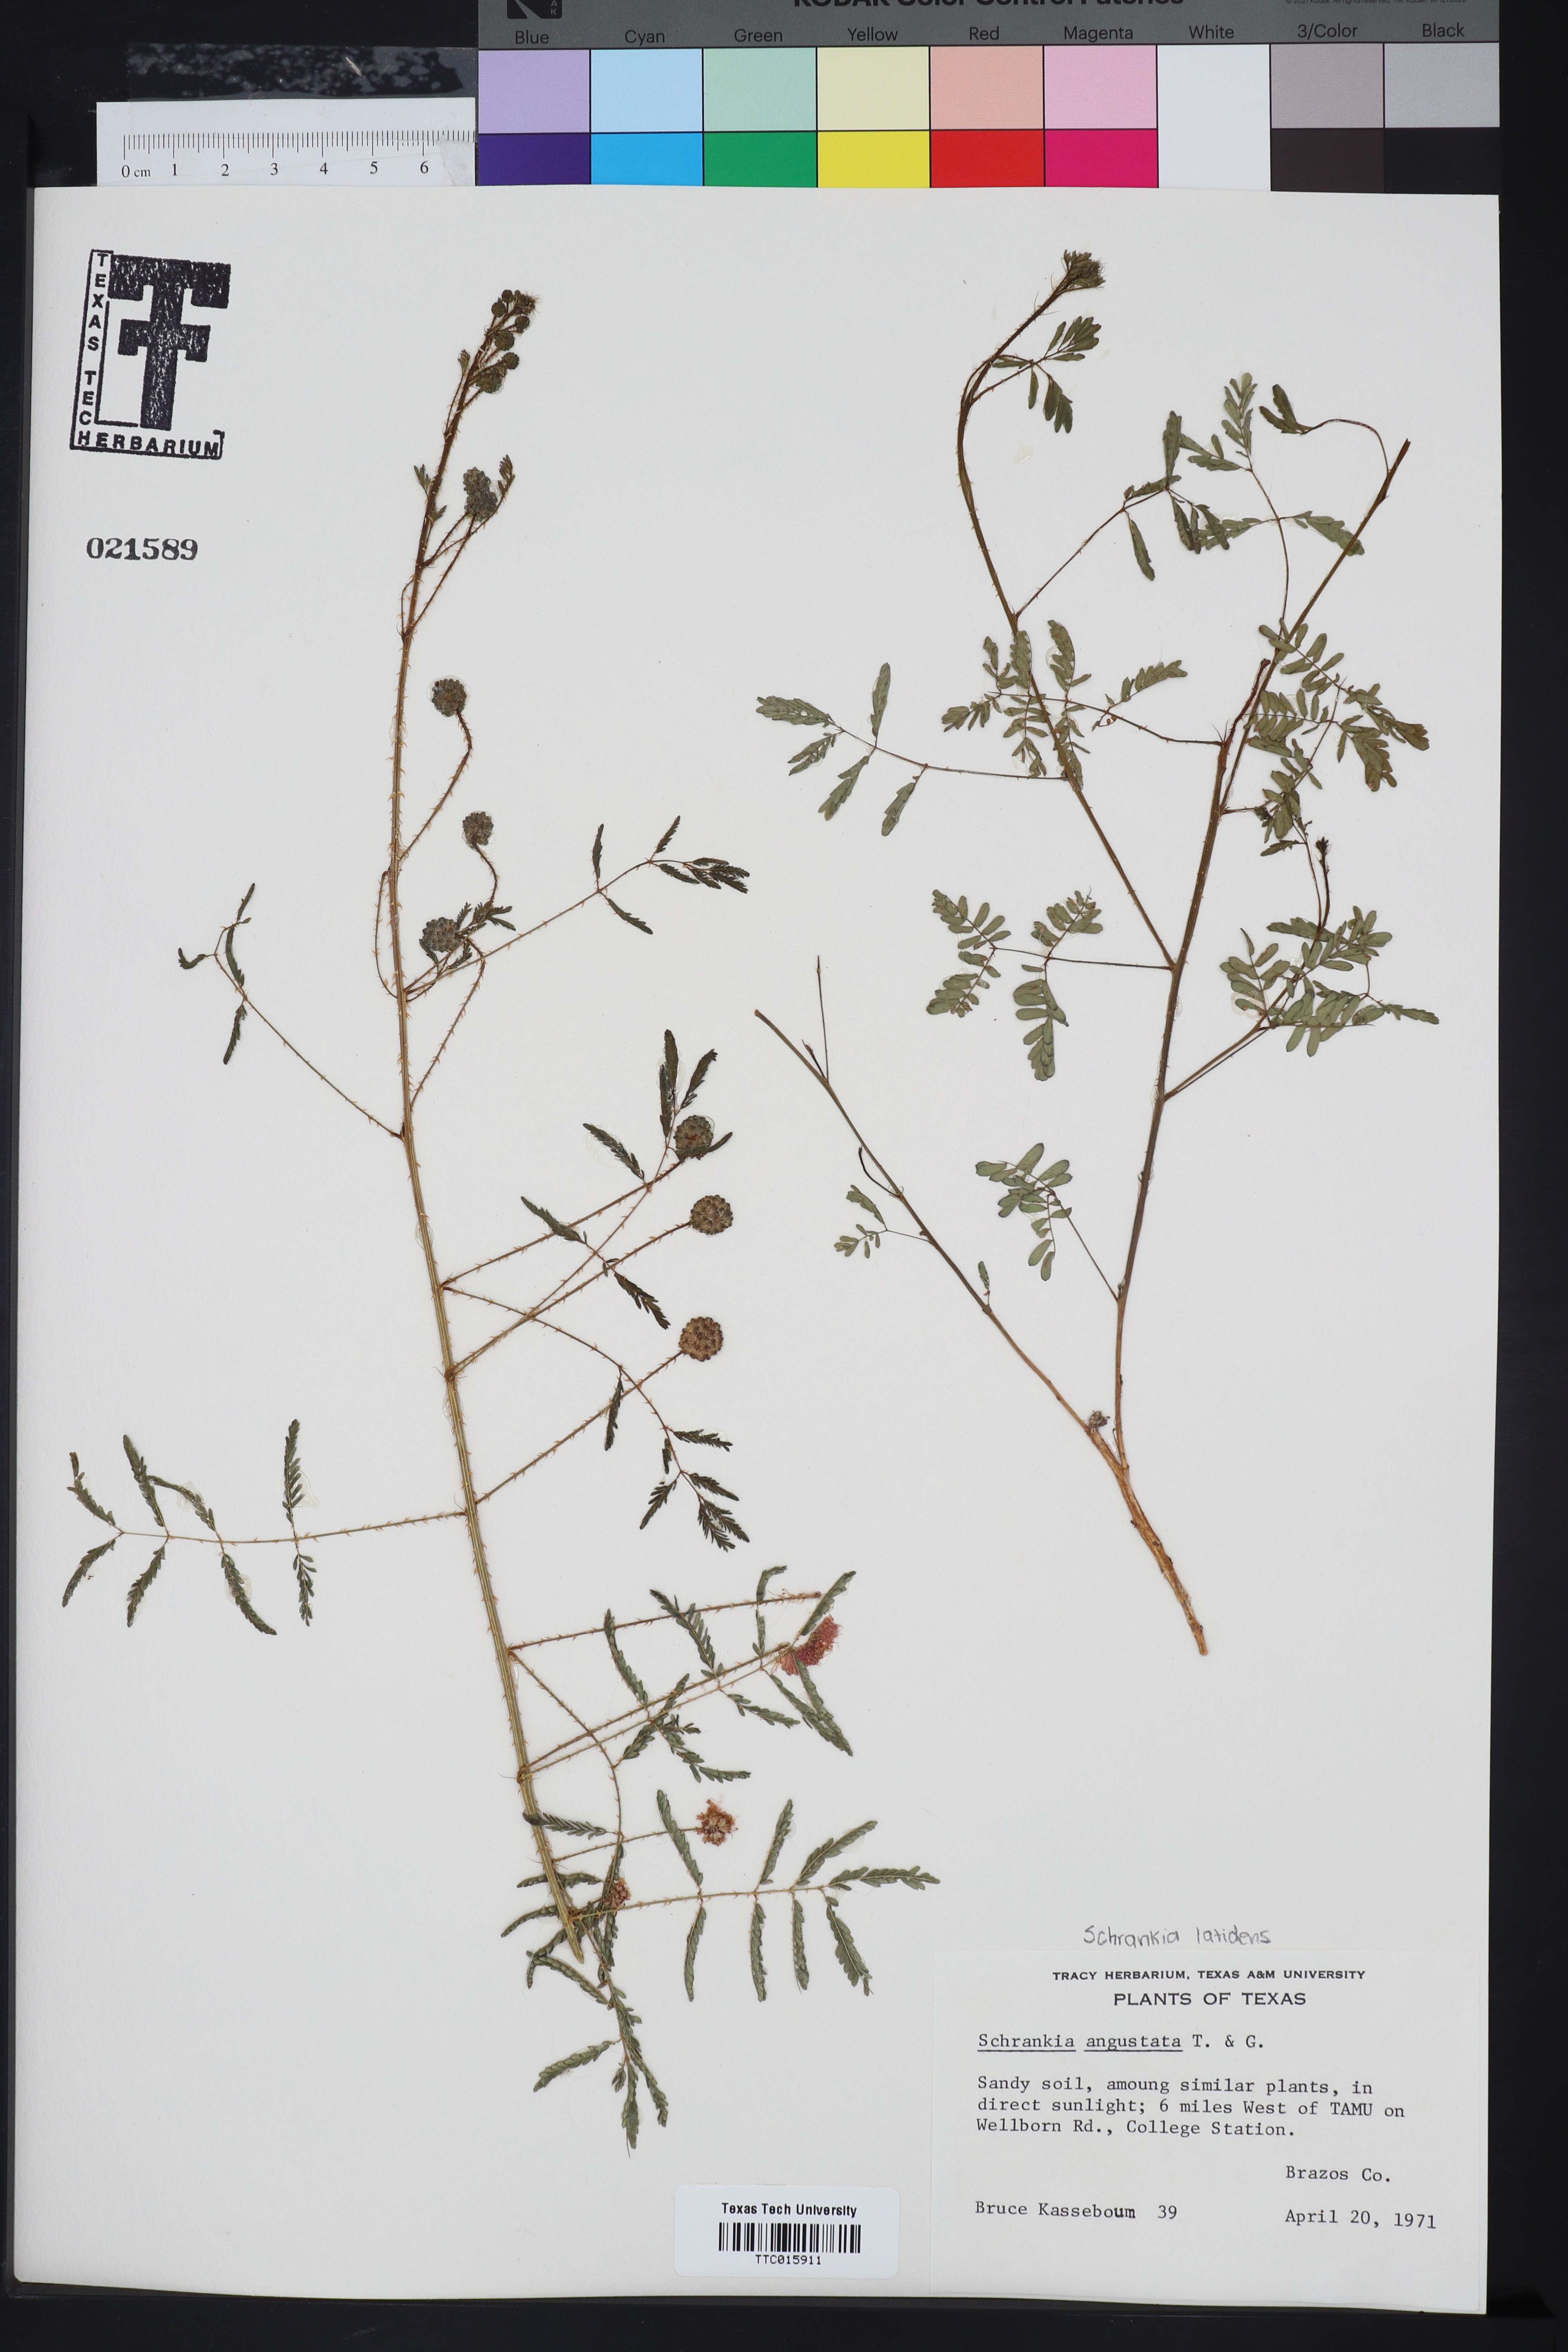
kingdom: Plantae
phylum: Tracheophyta
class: Magnoliopsida
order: Fabales
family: Fabaceae
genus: Mimosa
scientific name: Mimosa quadrivalvis
